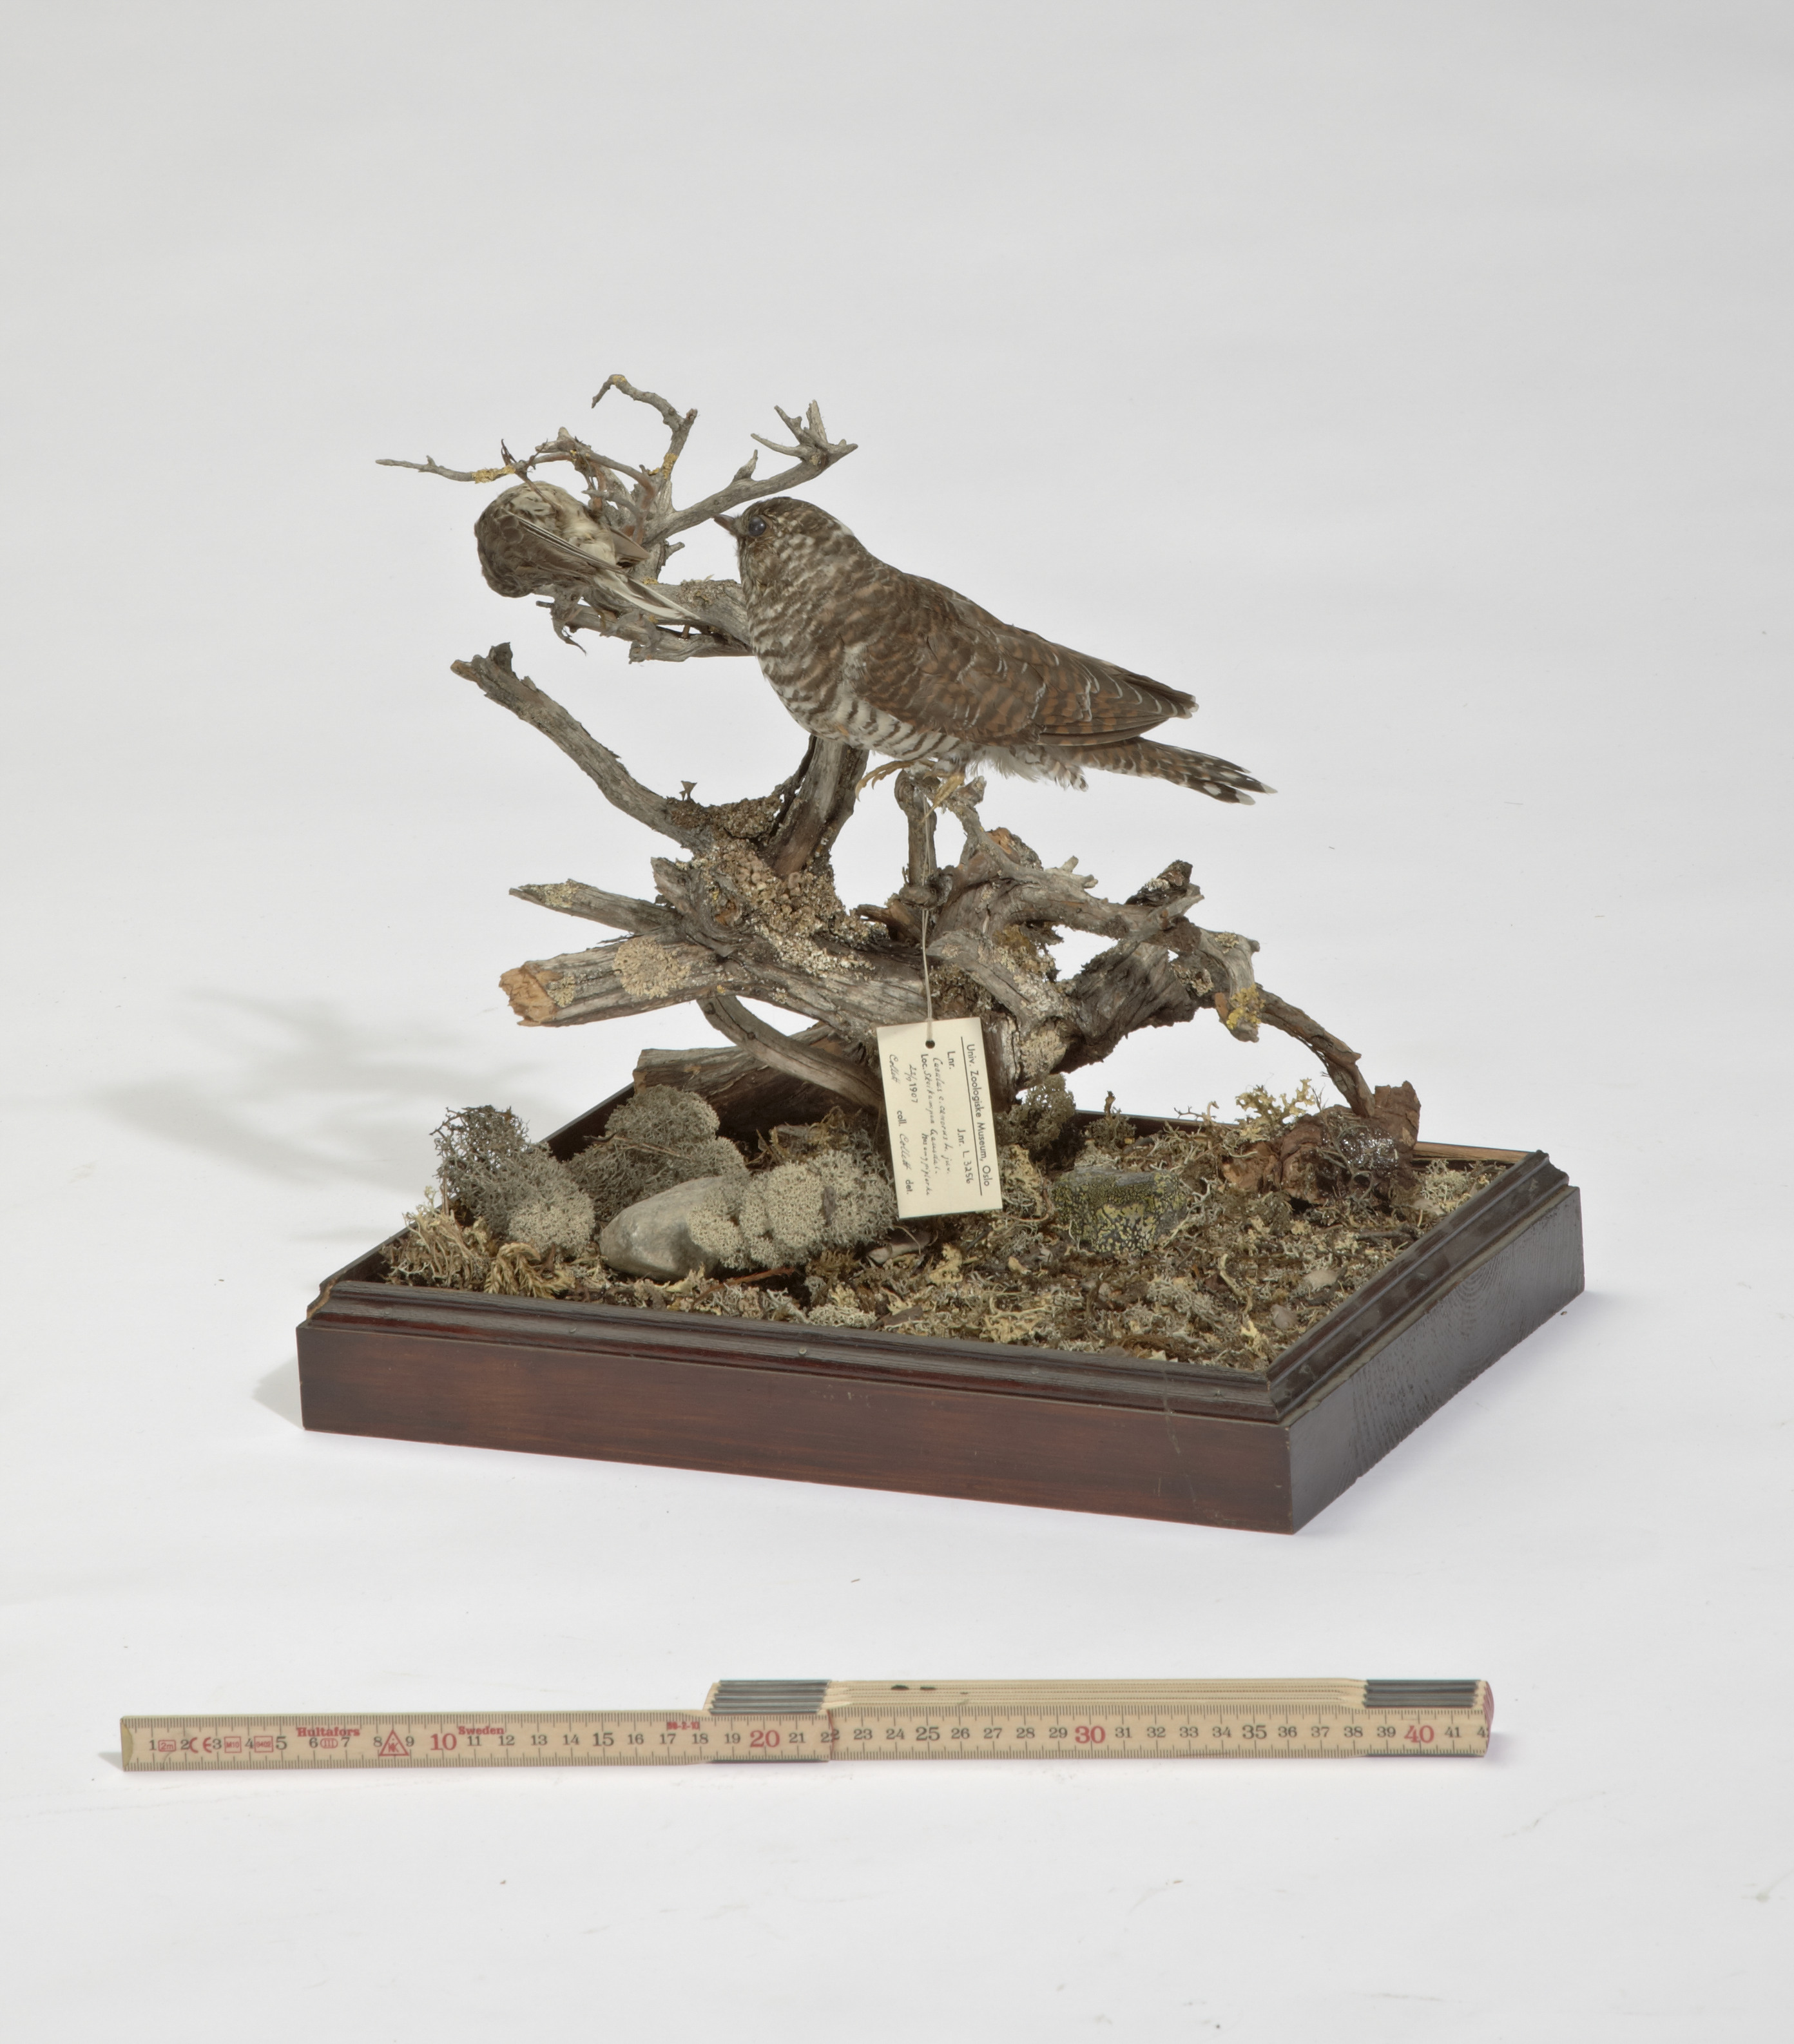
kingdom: Animalia
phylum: Chordata
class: Aves
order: Passeriformes
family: Motacillidae
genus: Anthus
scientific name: Anthus pratensis
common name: Meadow pipit
